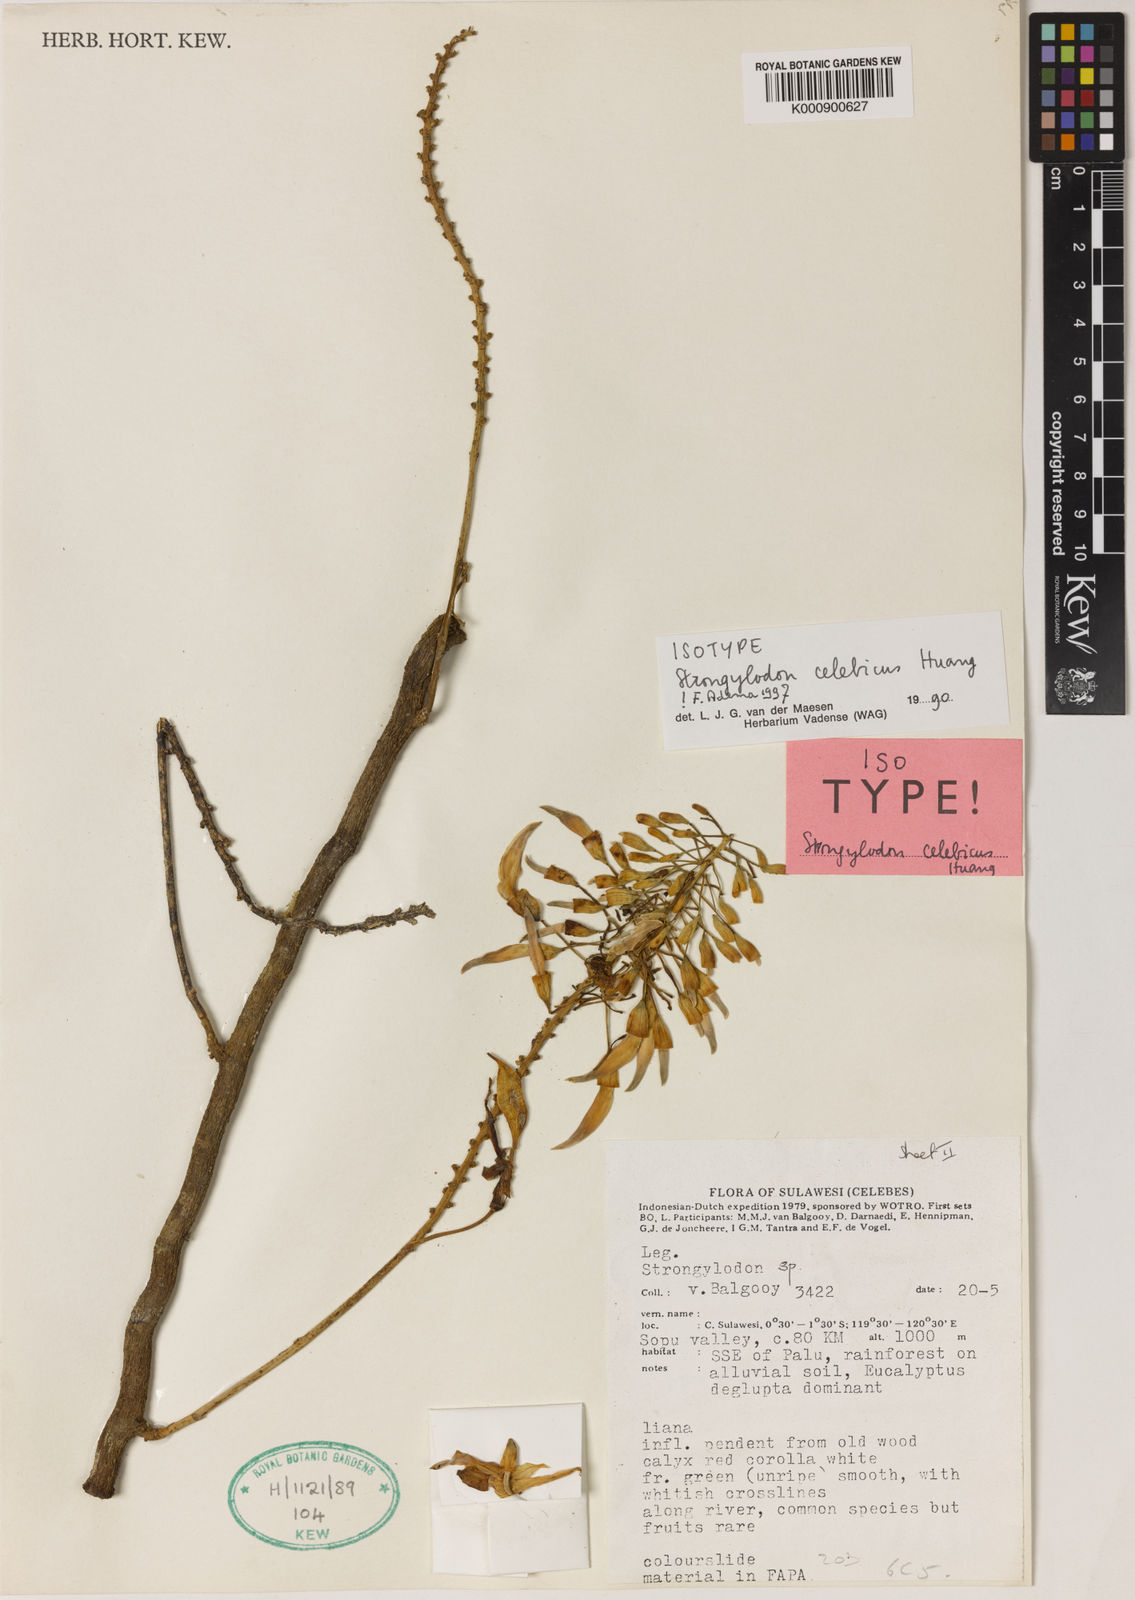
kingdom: Plantae
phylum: Tracheophyta
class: Magnoliopsida
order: Fabales
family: Fabaceae
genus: Strongylodon
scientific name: Strongylodon lucidus
